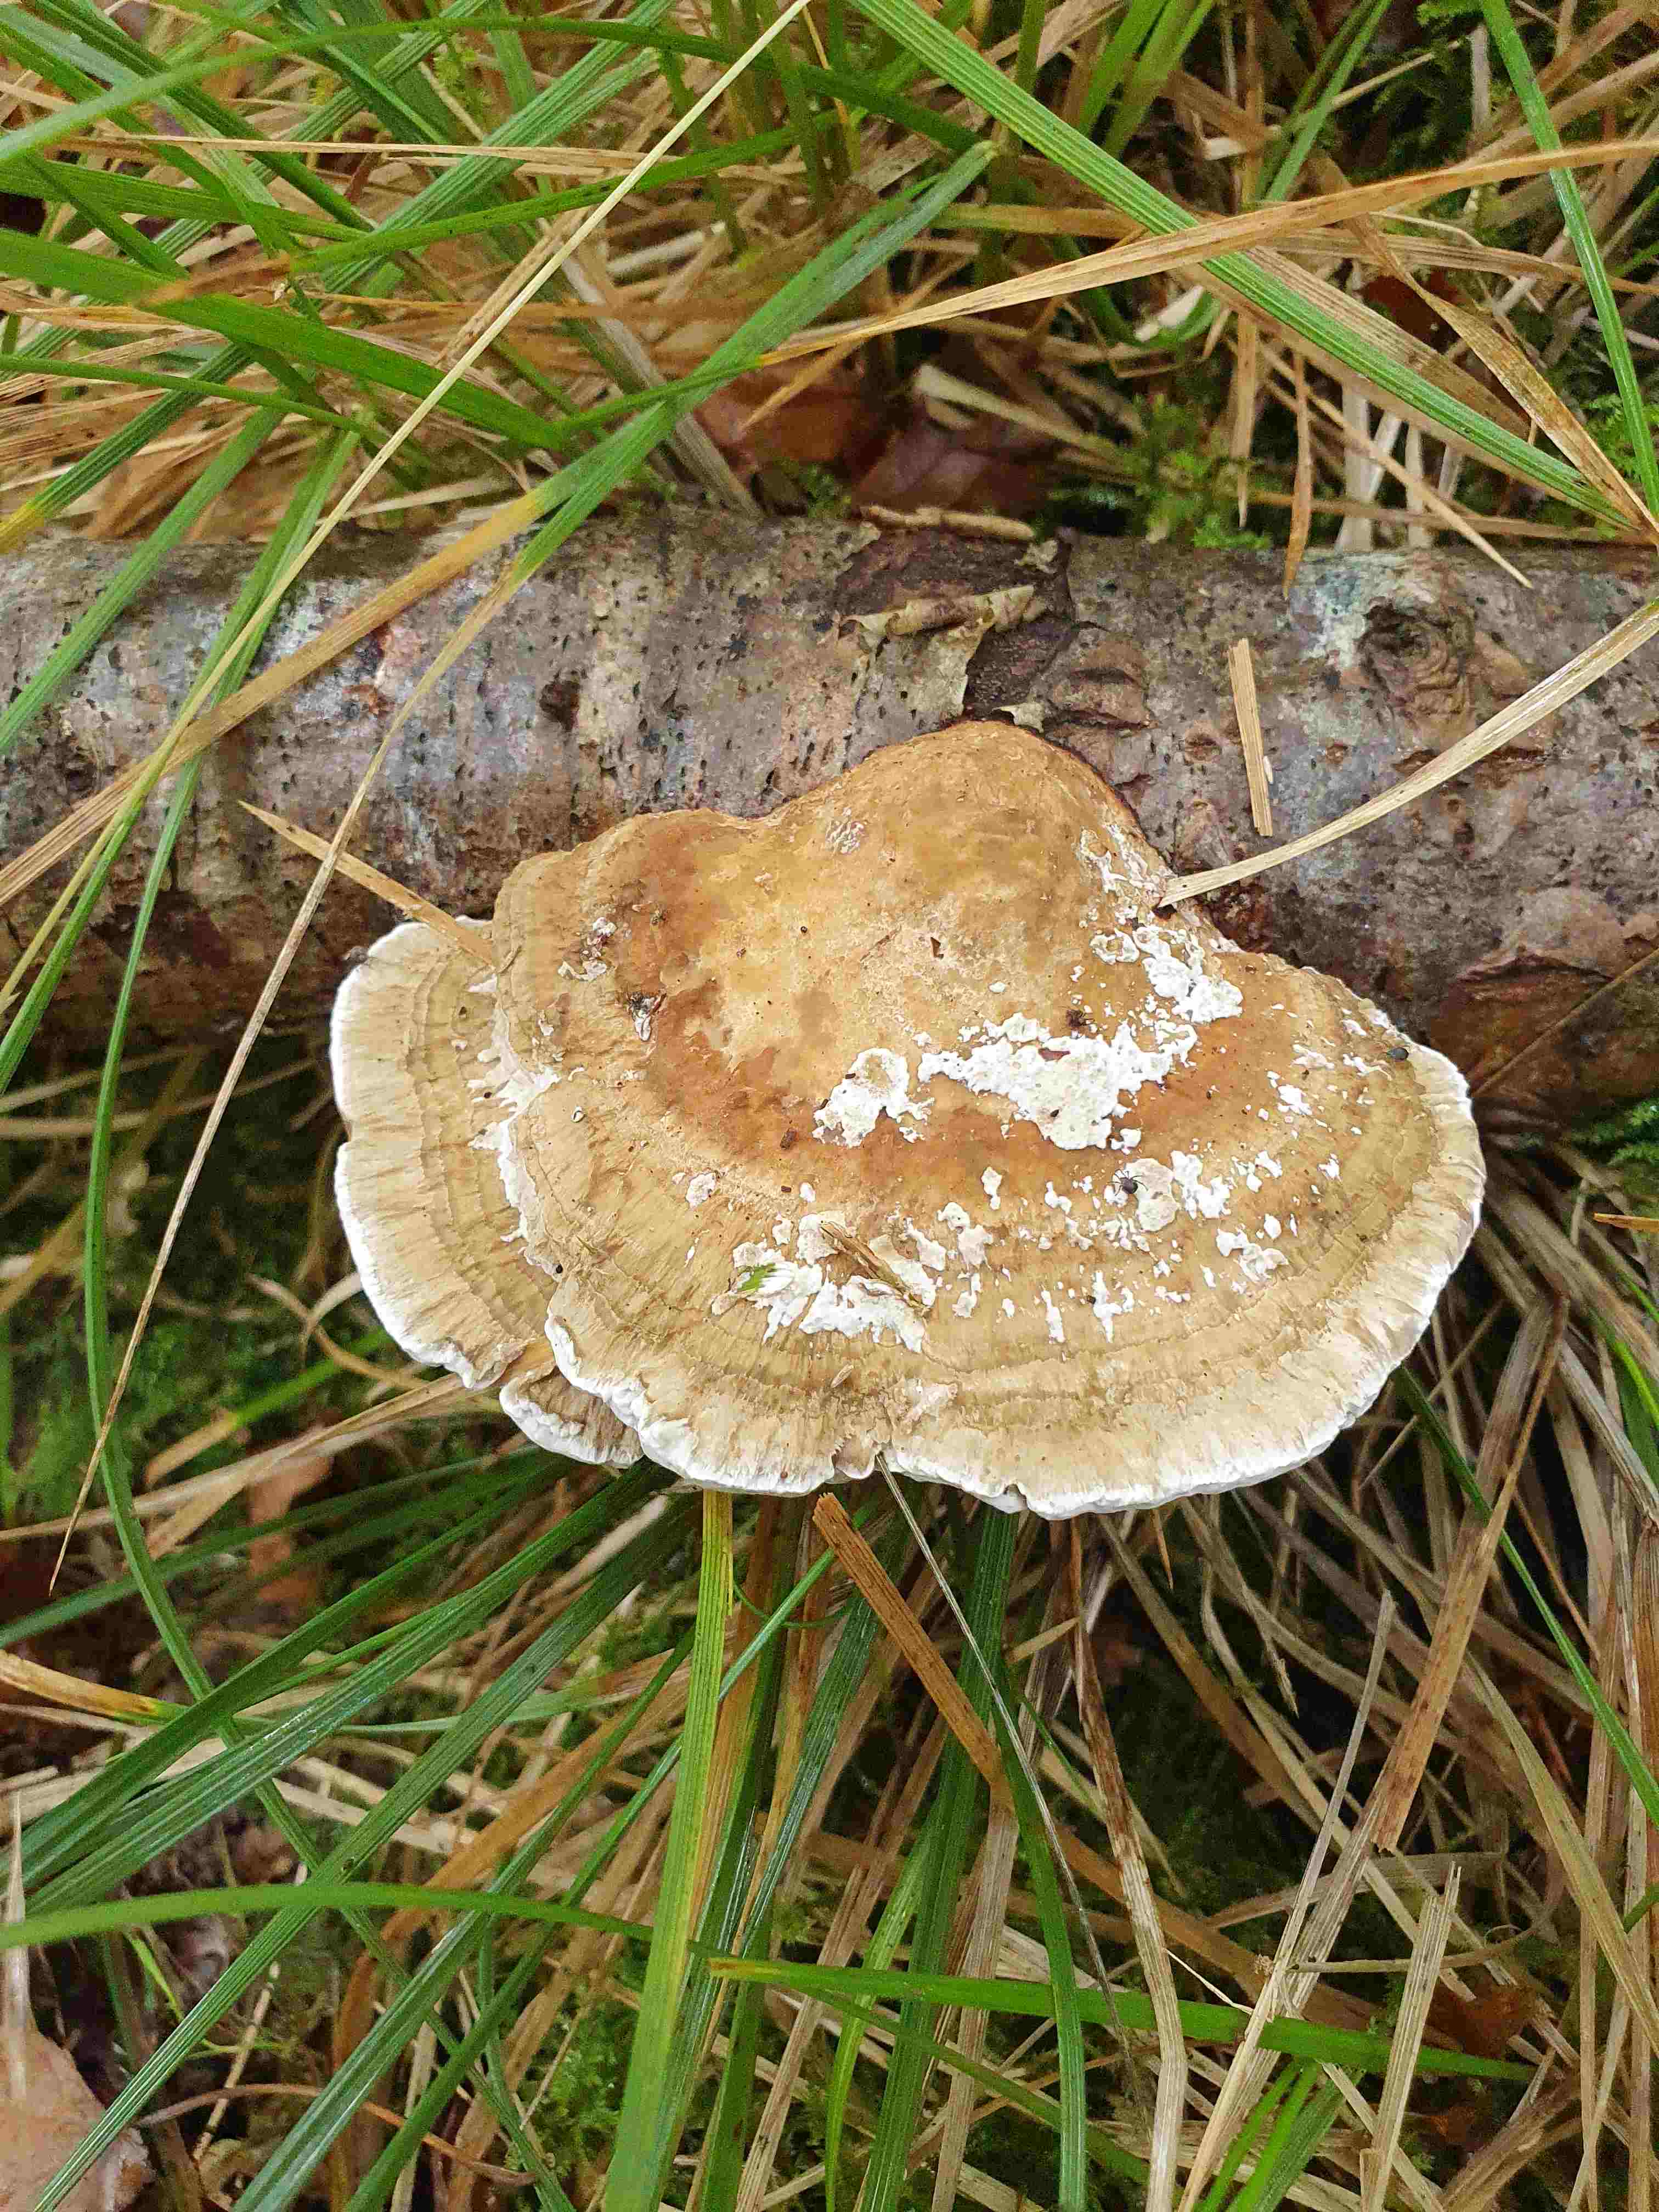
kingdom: Fungi
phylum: Basidiomycota
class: Agaricomycetes
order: Polyporales
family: Polyporaceae
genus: Daedaleopsis
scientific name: Daedaleopsis confragosa
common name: rødmende læderporesvamp
